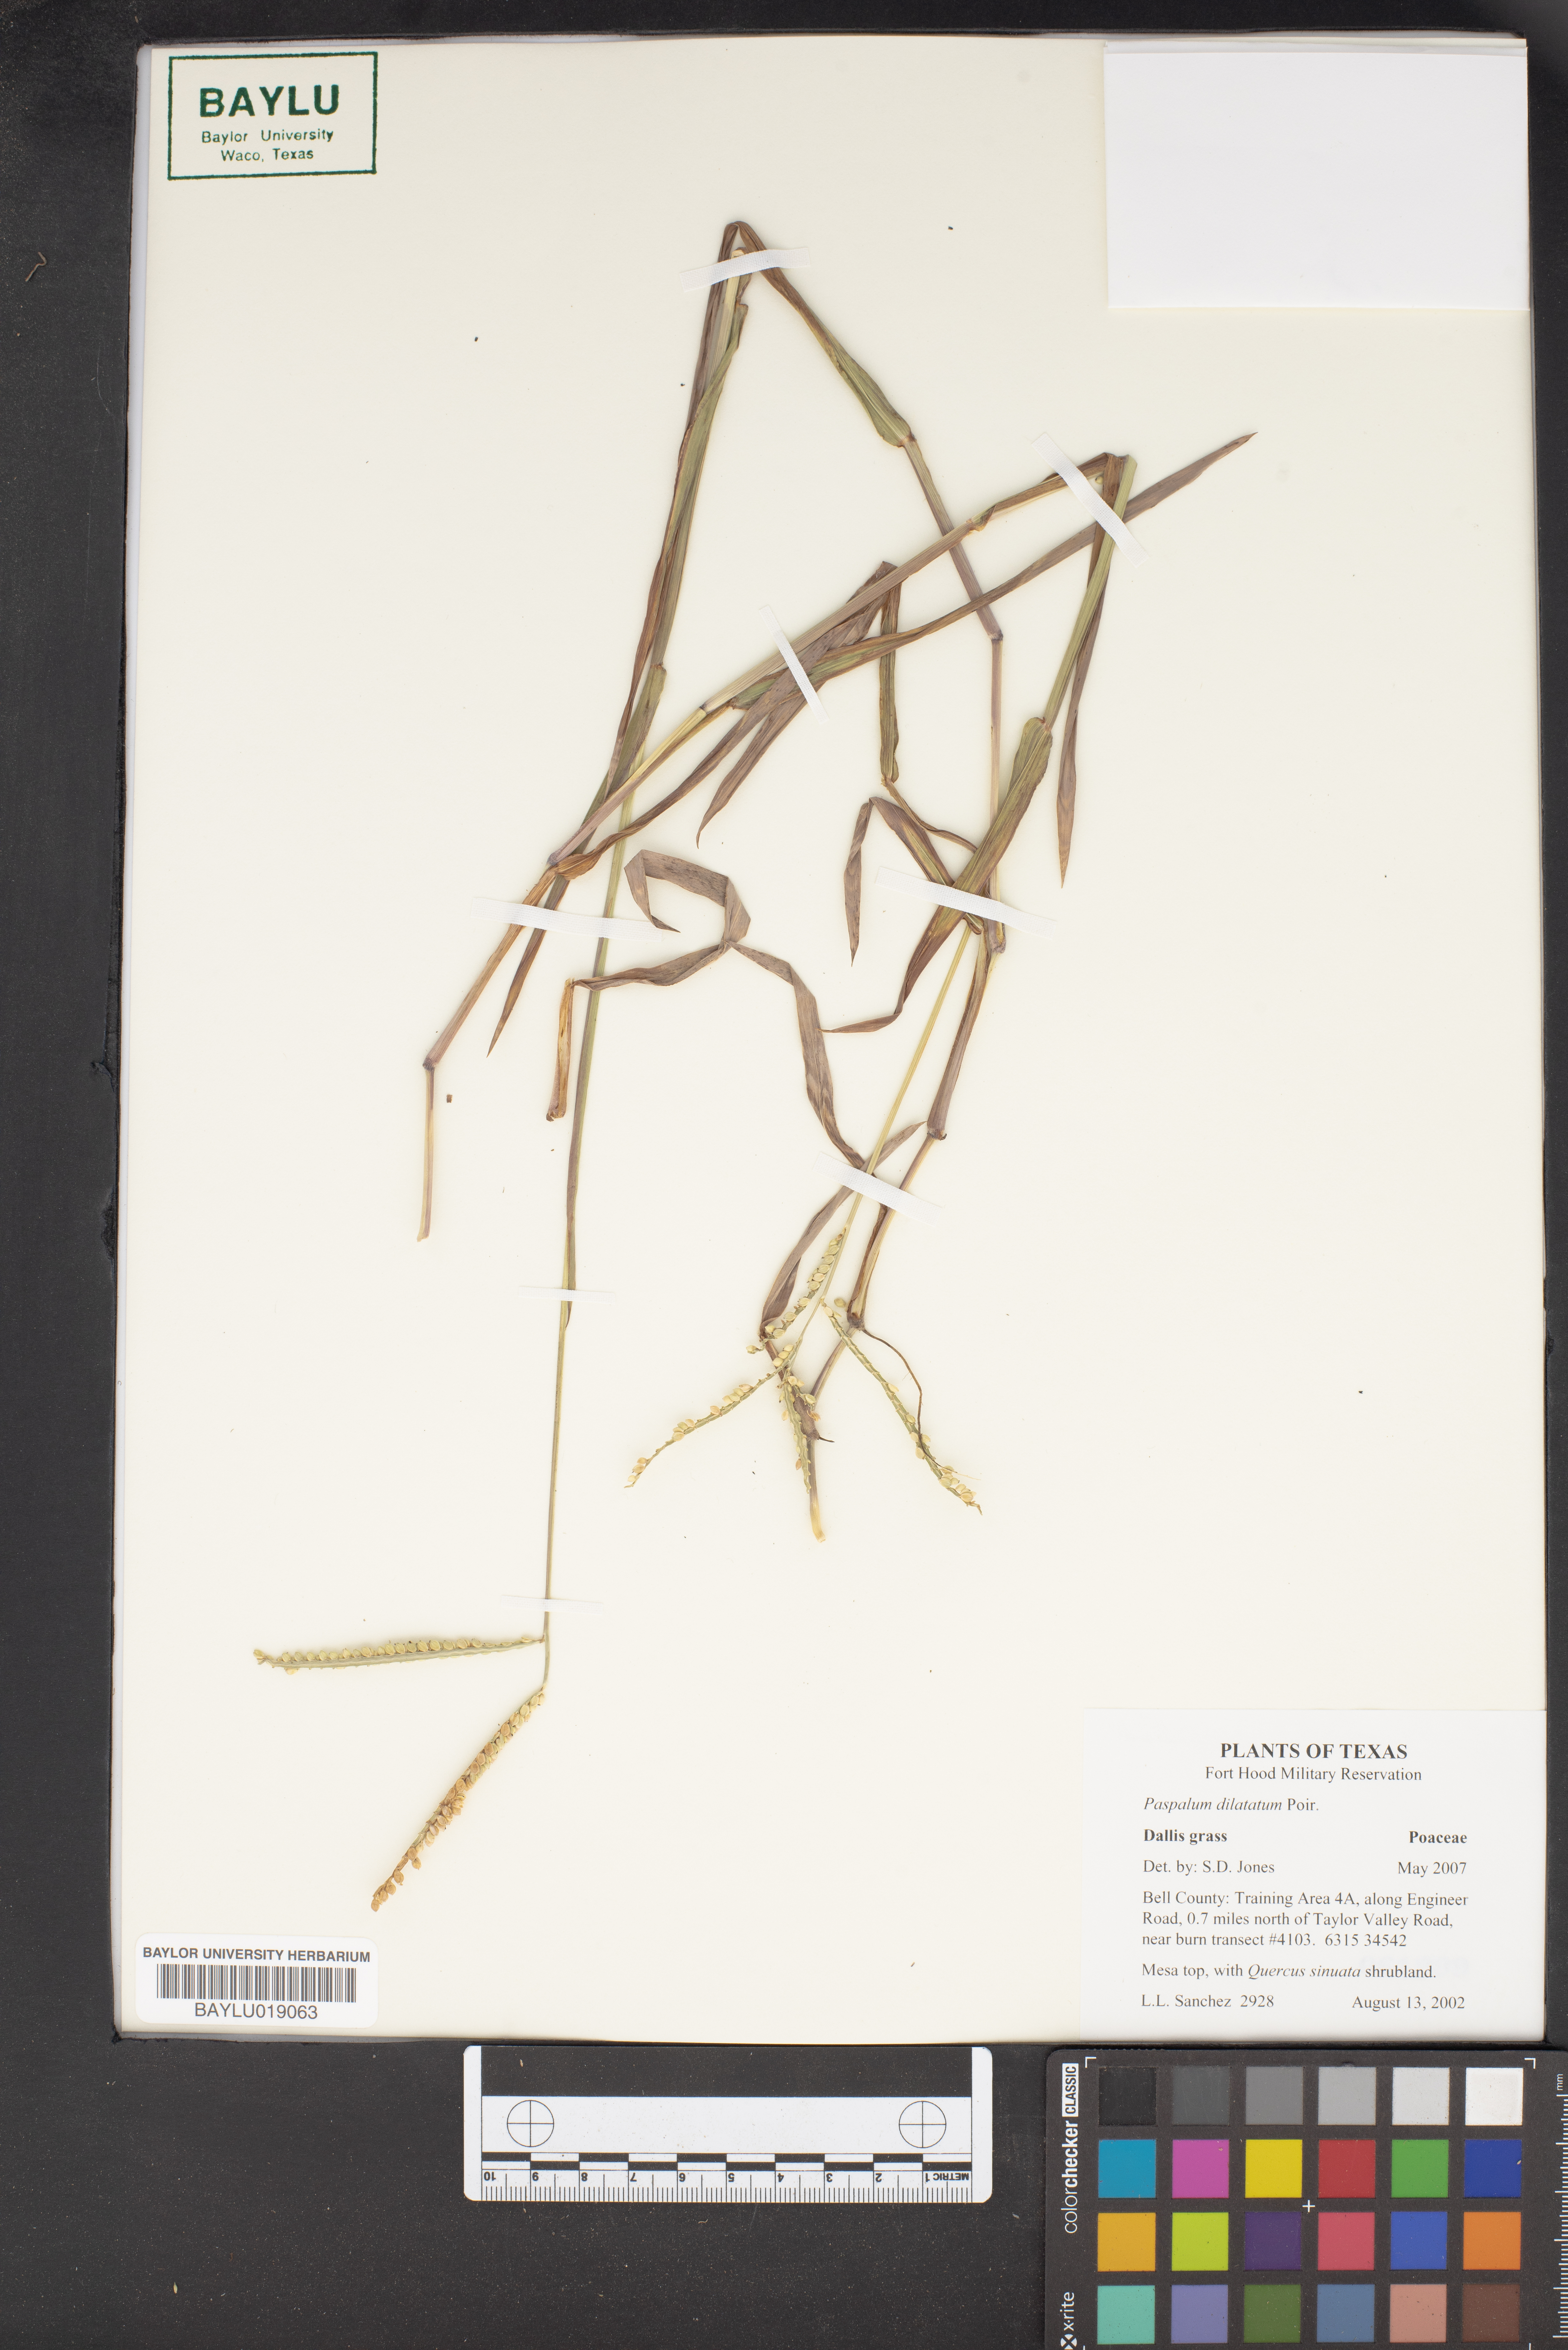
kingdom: Plantae
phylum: Tracheophyta
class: Liliopsida
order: Poales
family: Poaceae
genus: Paspalum
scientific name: Paspalum dilatatum
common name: Dallisgrass
